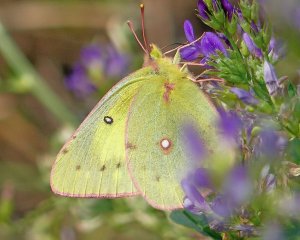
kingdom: Animalia
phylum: Arthropoda
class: Insecta
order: Lepidoptera
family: Pieridae
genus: Colias
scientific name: Colias eurytheme
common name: Orange Sulphur
